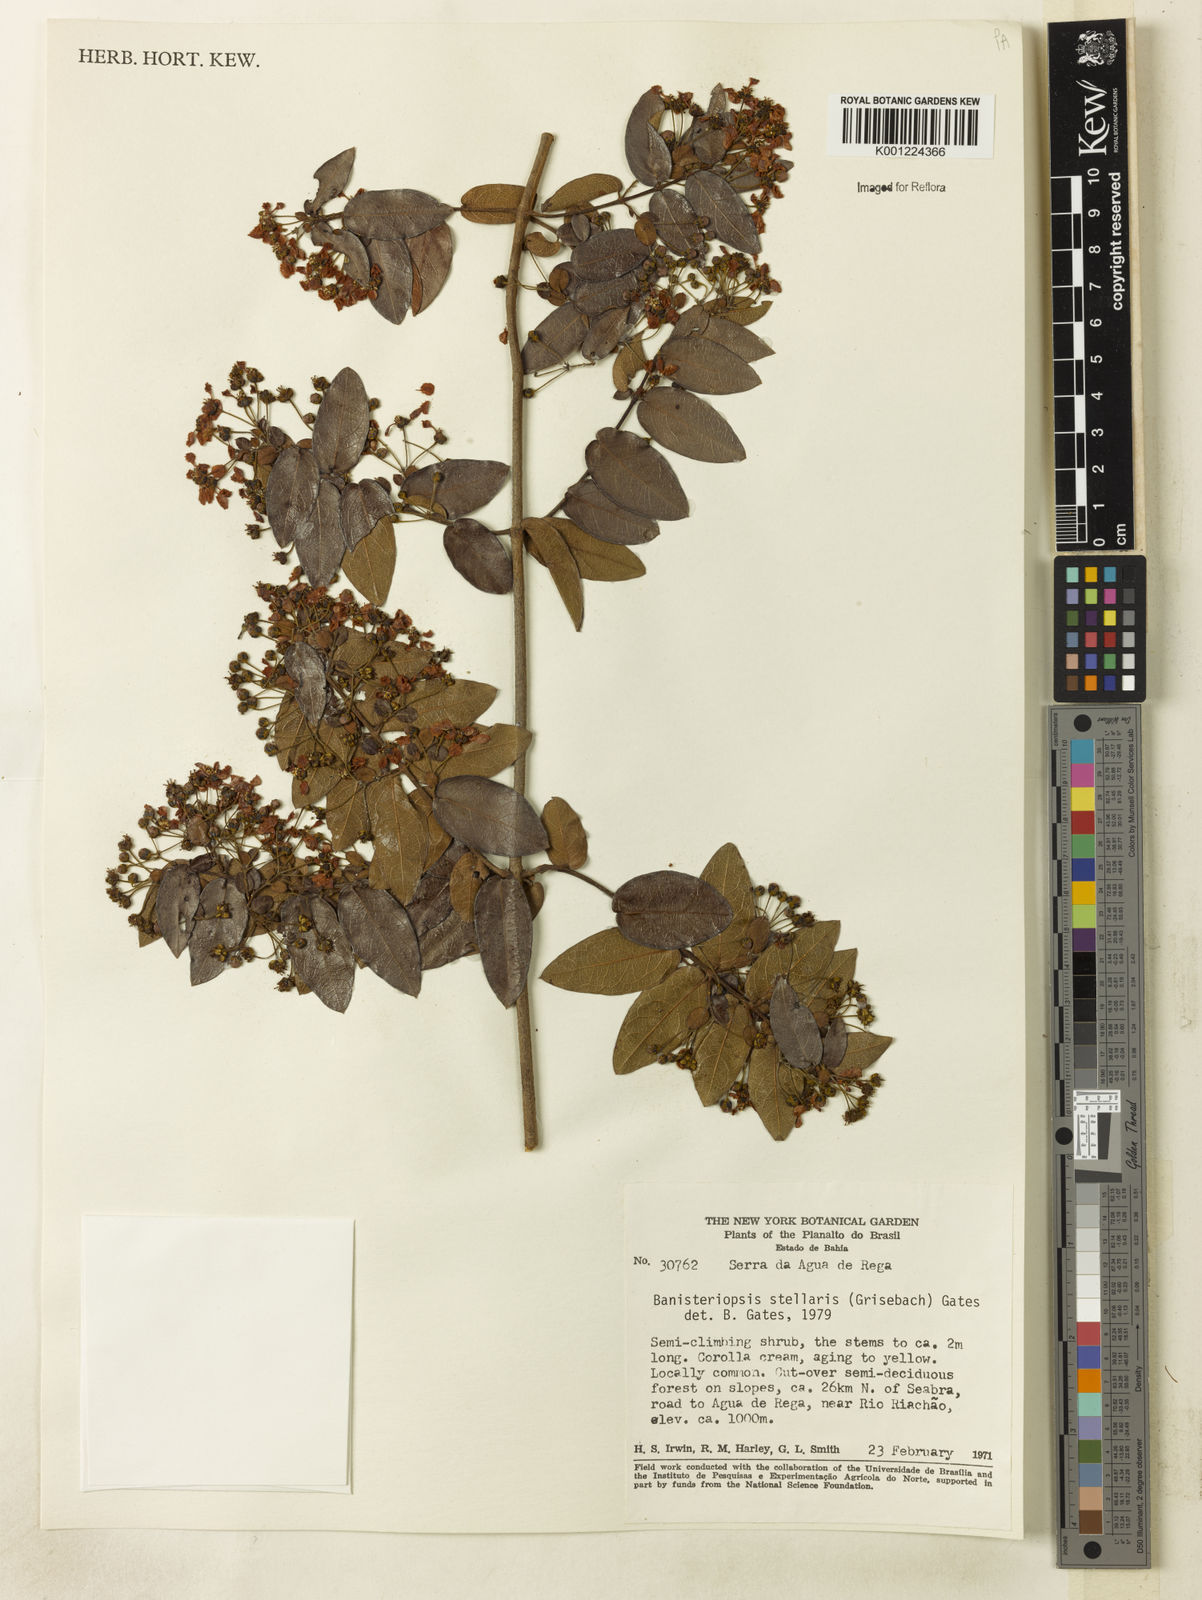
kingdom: Plantae
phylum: Tracheophyta
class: Magnoliopsida
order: Malpighiales
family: Malpighiaceae
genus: Banisteriopsis
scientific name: Banisteriopsis stellaris
